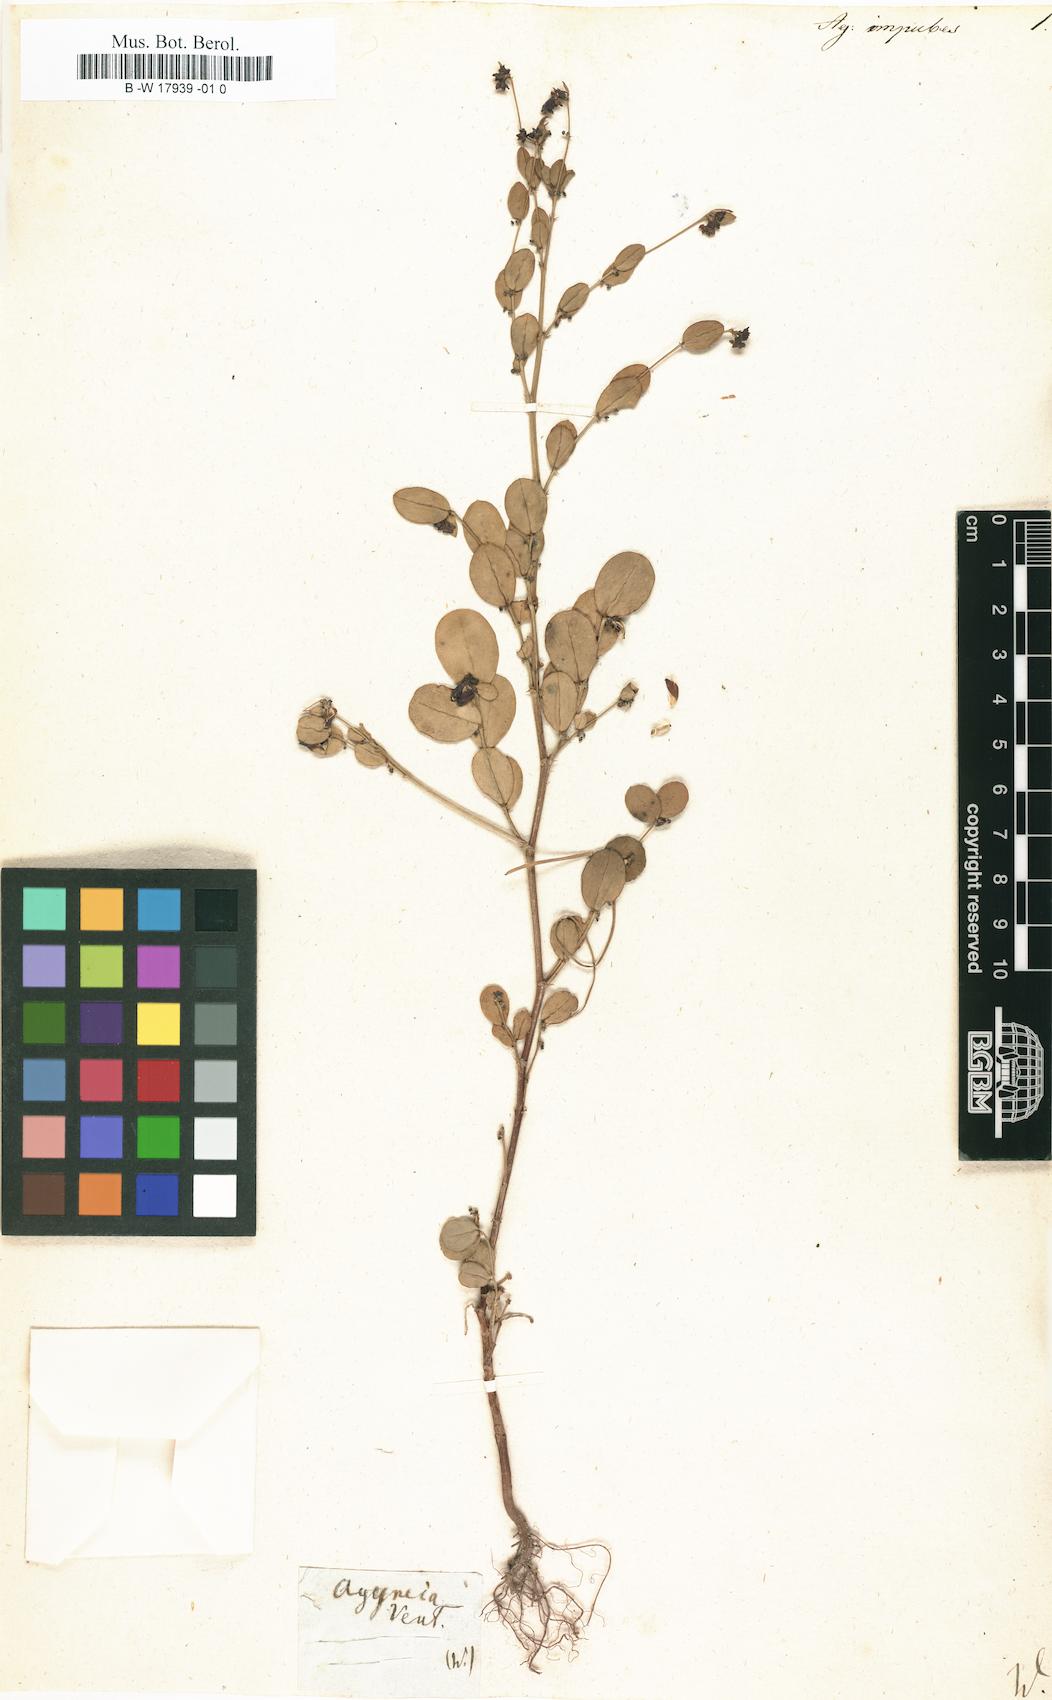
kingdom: Plantae
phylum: Tracheophyta
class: Magnoliopsida
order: Malpighiales
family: Phyllanthaceae
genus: Glochidion
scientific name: Glochidion puberum
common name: Needlebush
